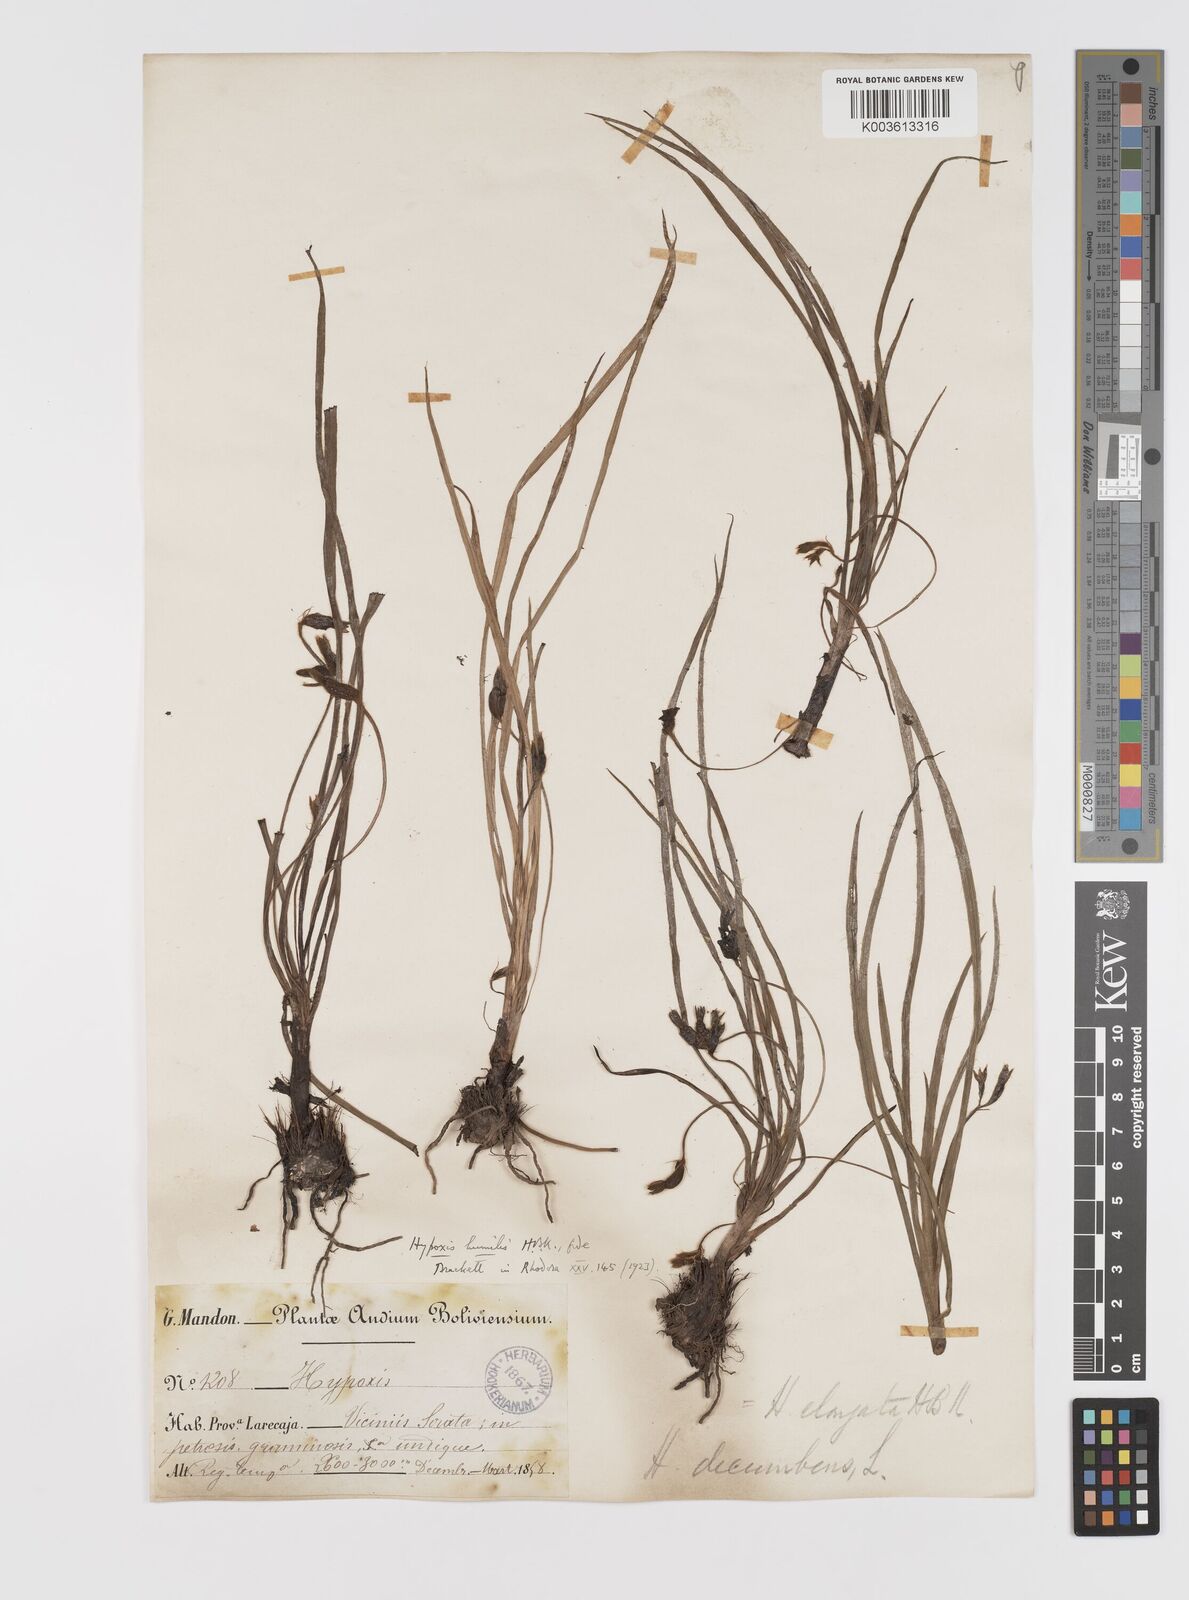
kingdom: Plantae
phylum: Tracheophyta
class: Liliopsida
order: Asparagales
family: Hypoxidaceae
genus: Hypoxis
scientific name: Hypoxis humilis
